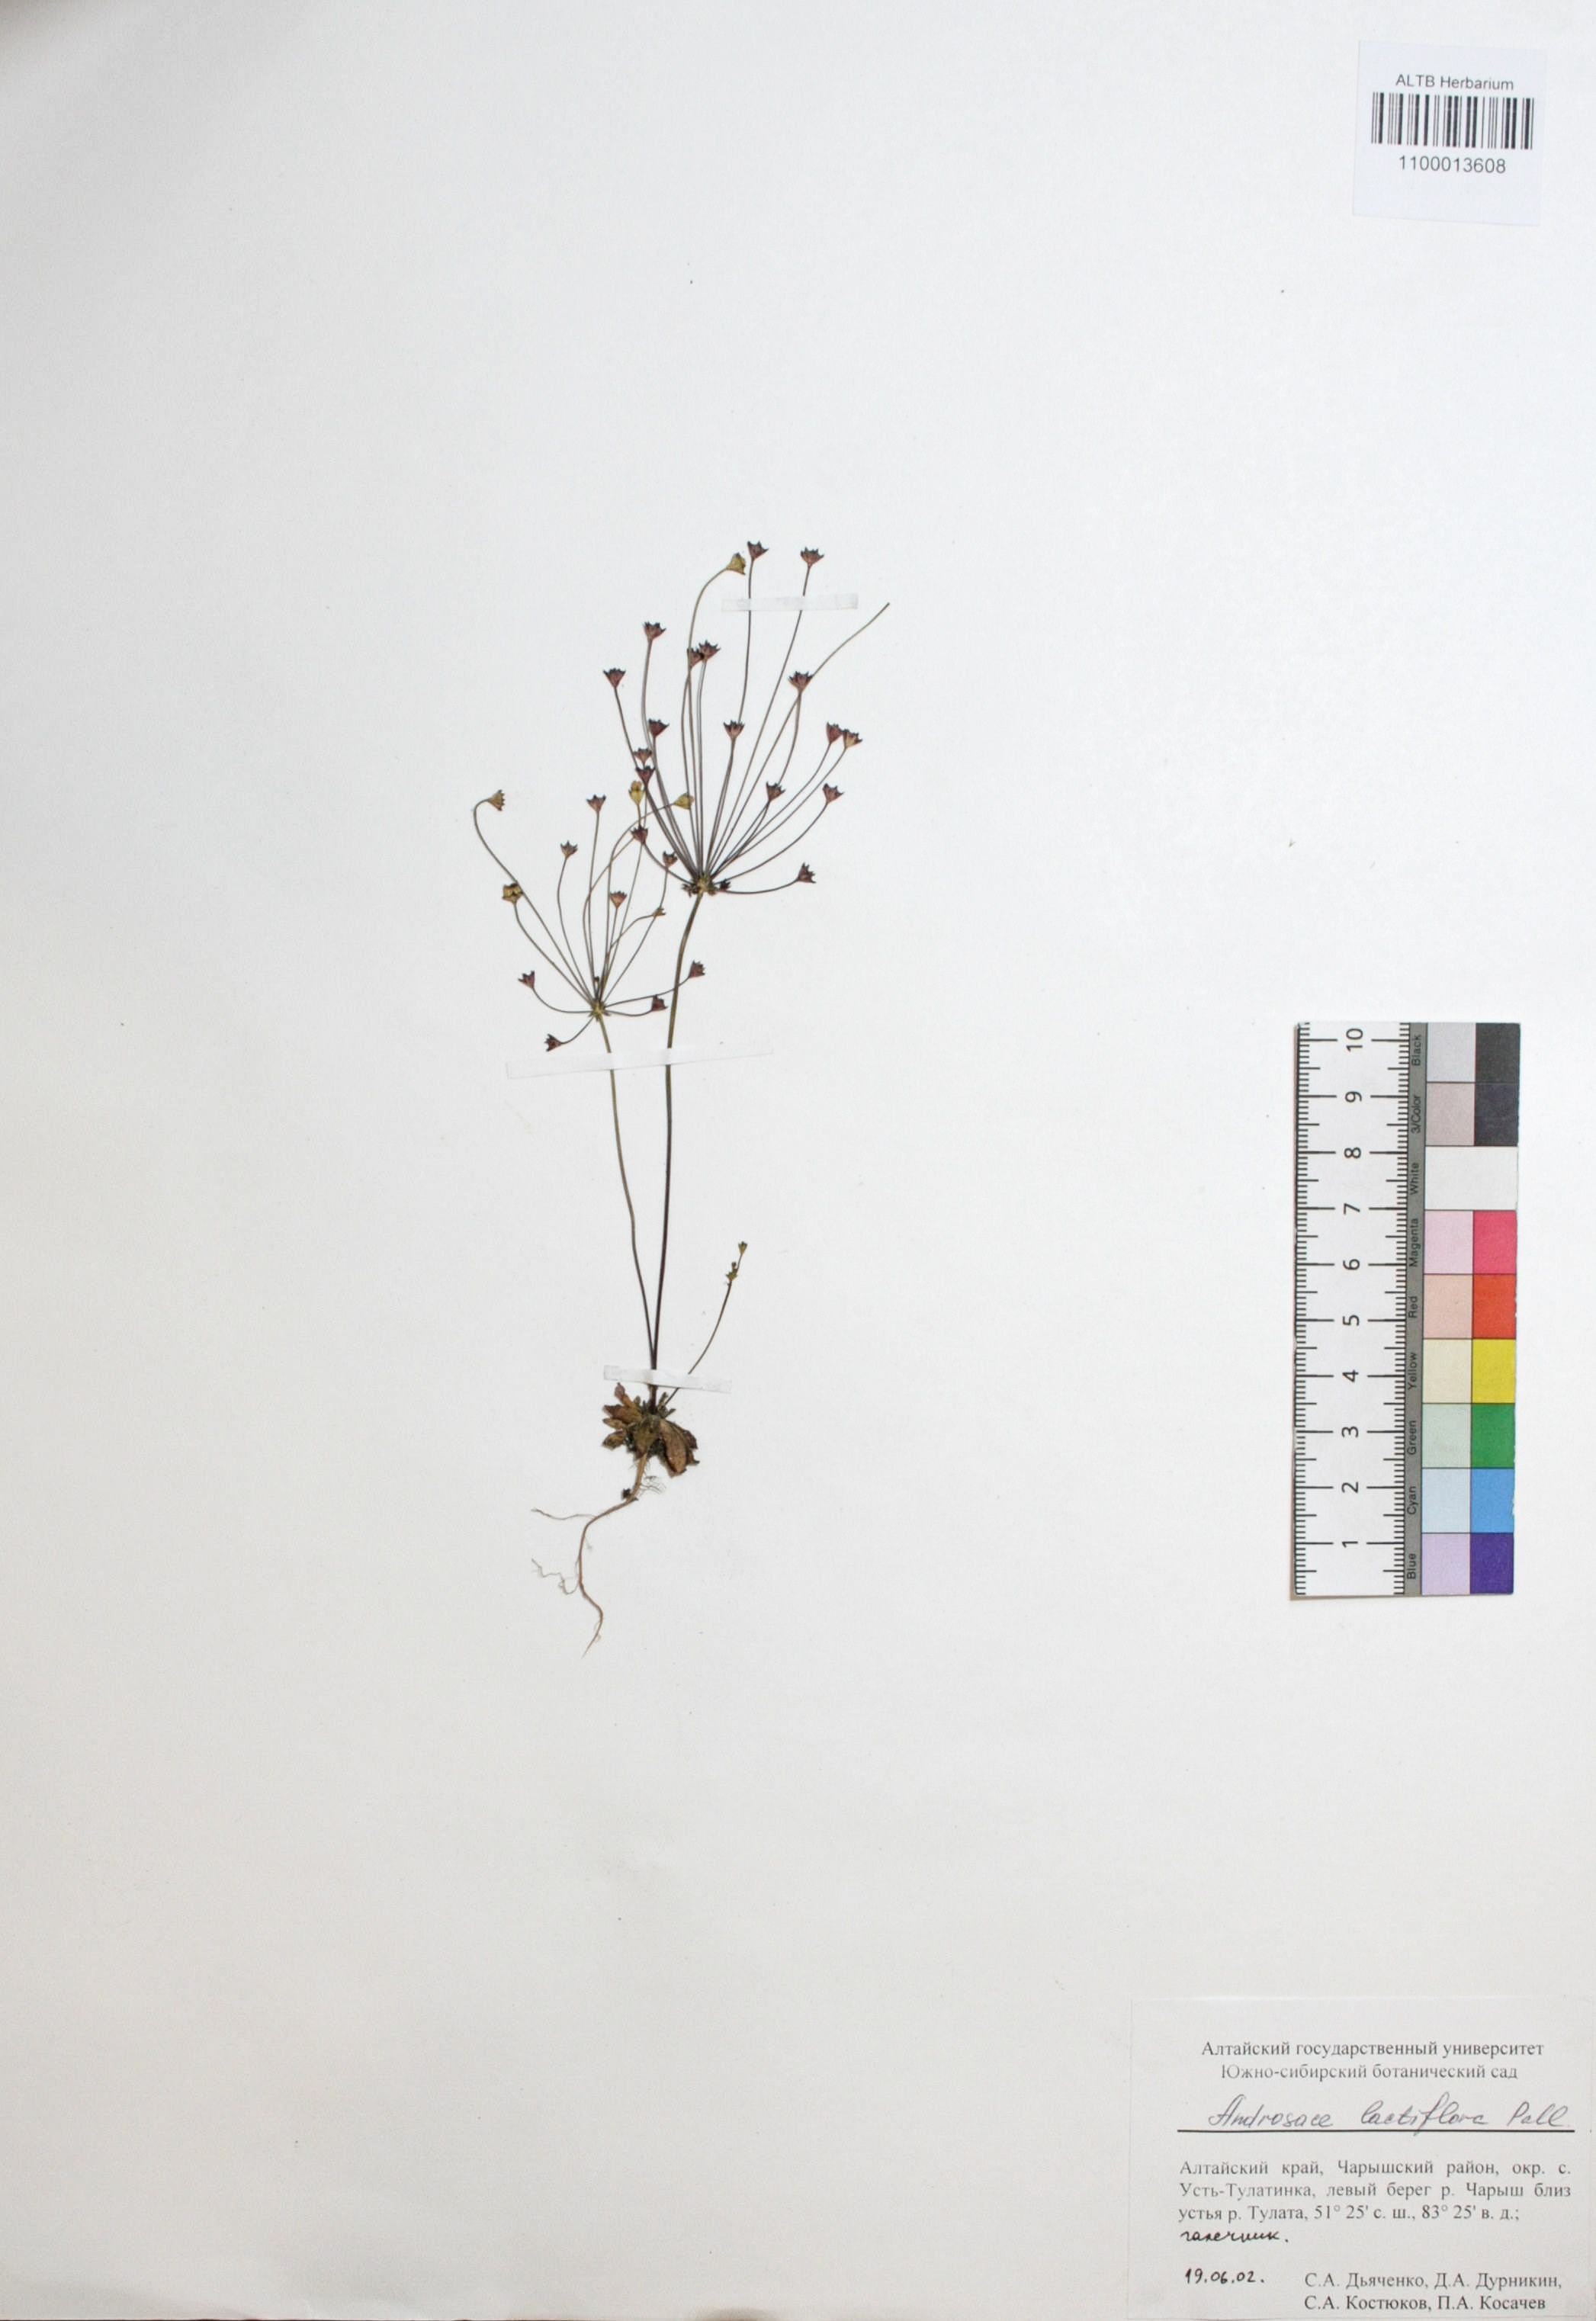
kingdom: Plantae
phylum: Tracheophyta
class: Magnoliopsida
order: Ericales
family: Primulaceae
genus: Androsace
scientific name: Androsace lactiflora
